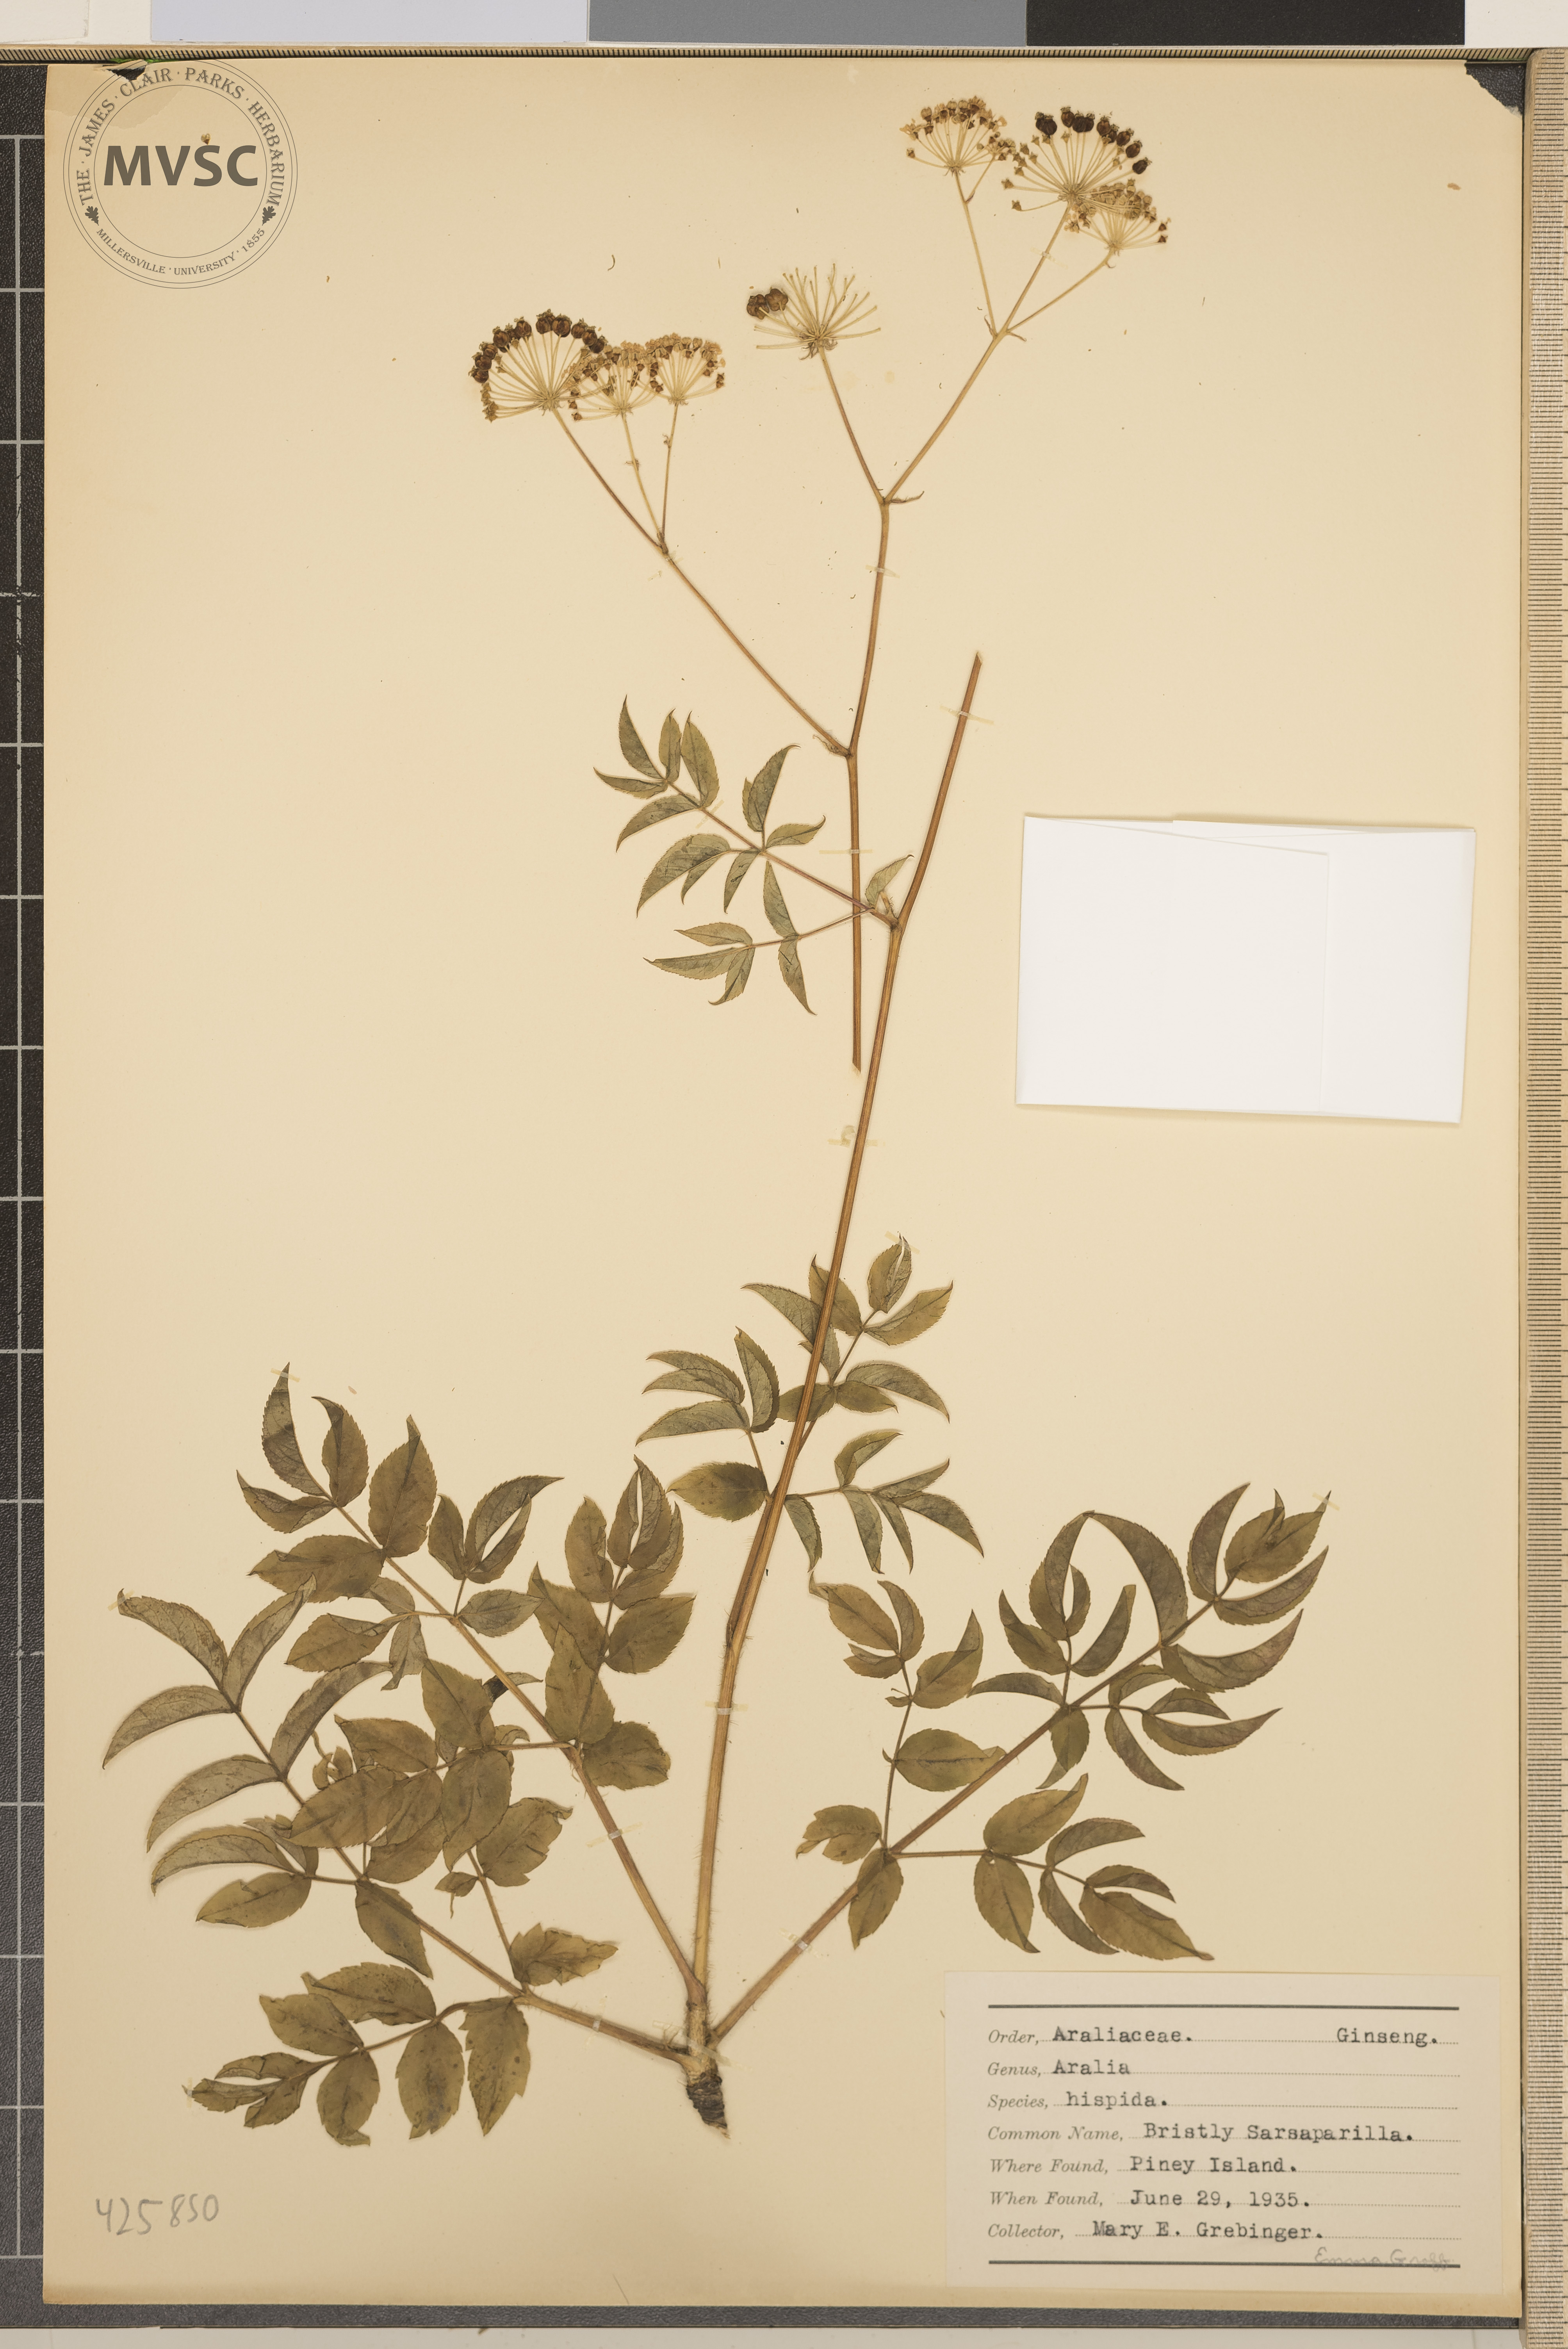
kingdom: Plantae
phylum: Tracheophyta
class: Magnoliopsida
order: Apiales
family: Araliaceae
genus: Aralia
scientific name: Aralia hispida
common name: Bristly Sarsaparilla
